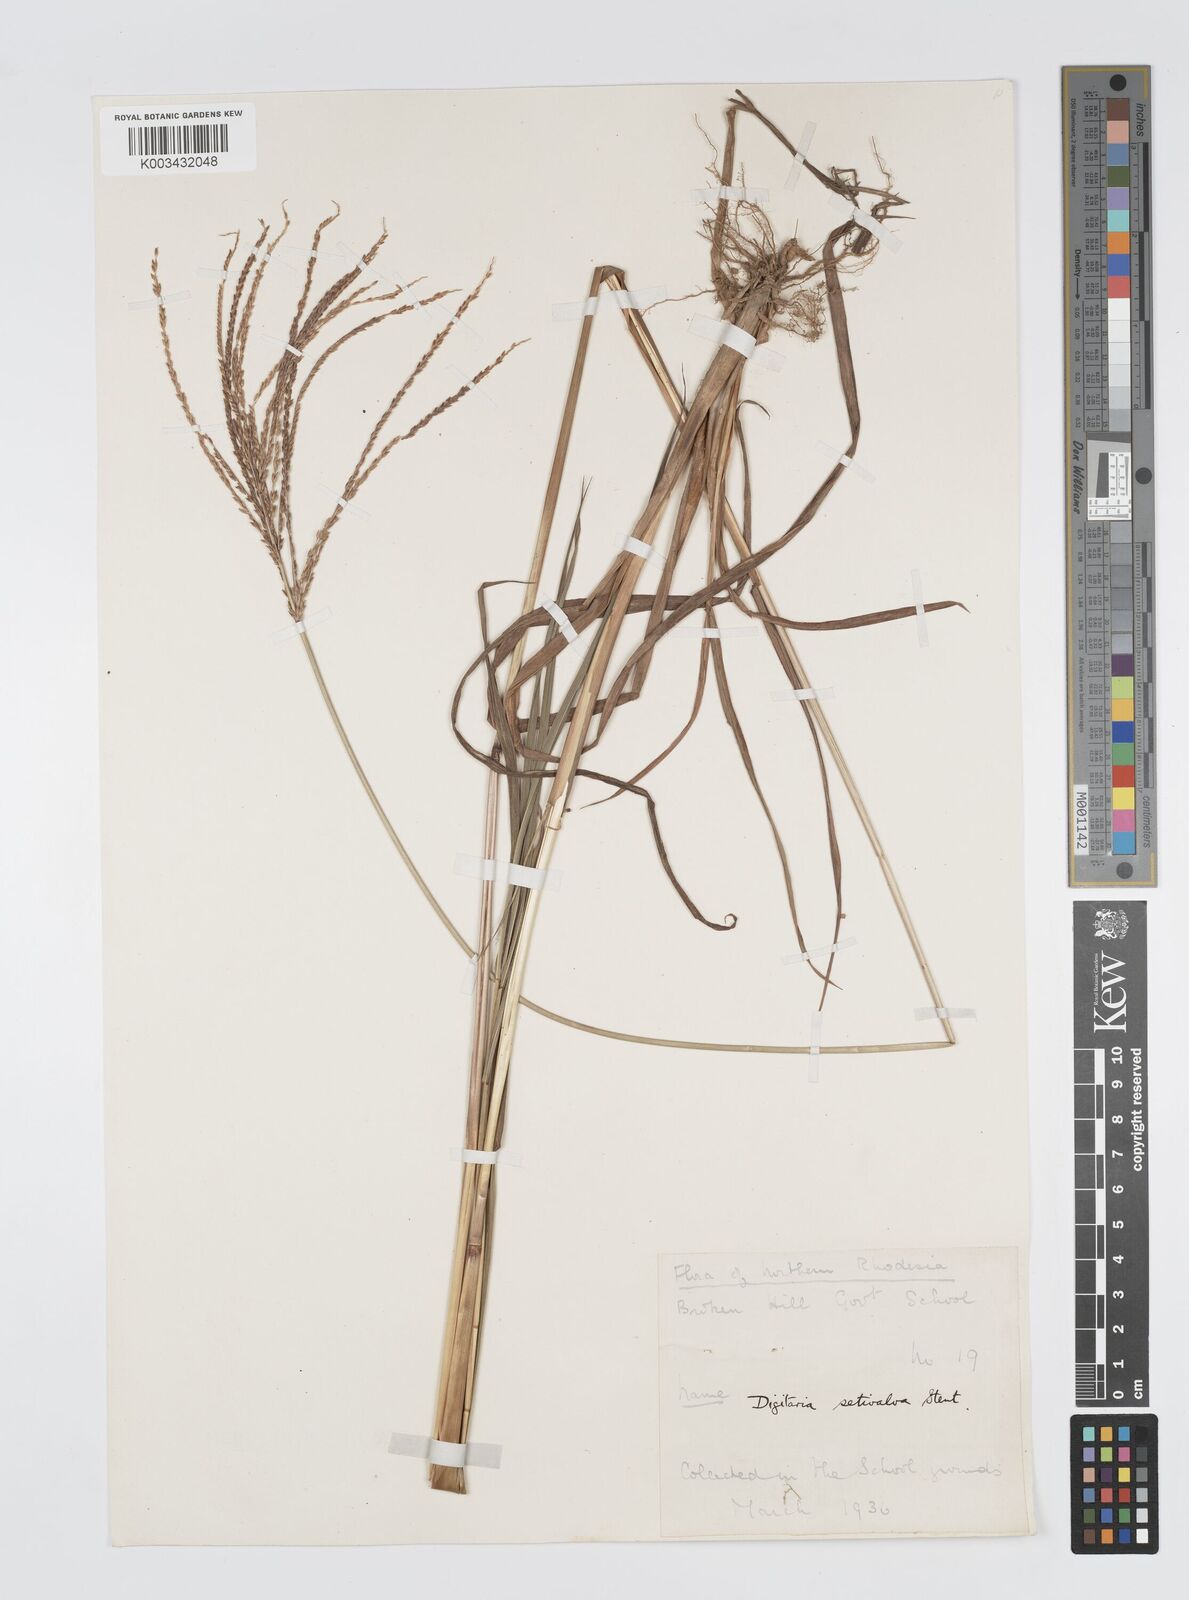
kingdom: Plantae
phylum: Tracheophyta
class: Liliopsida
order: Poales
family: Poaceae
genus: Digitaria
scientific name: Digitaria milanjiana
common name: Madagascar crabgrass
